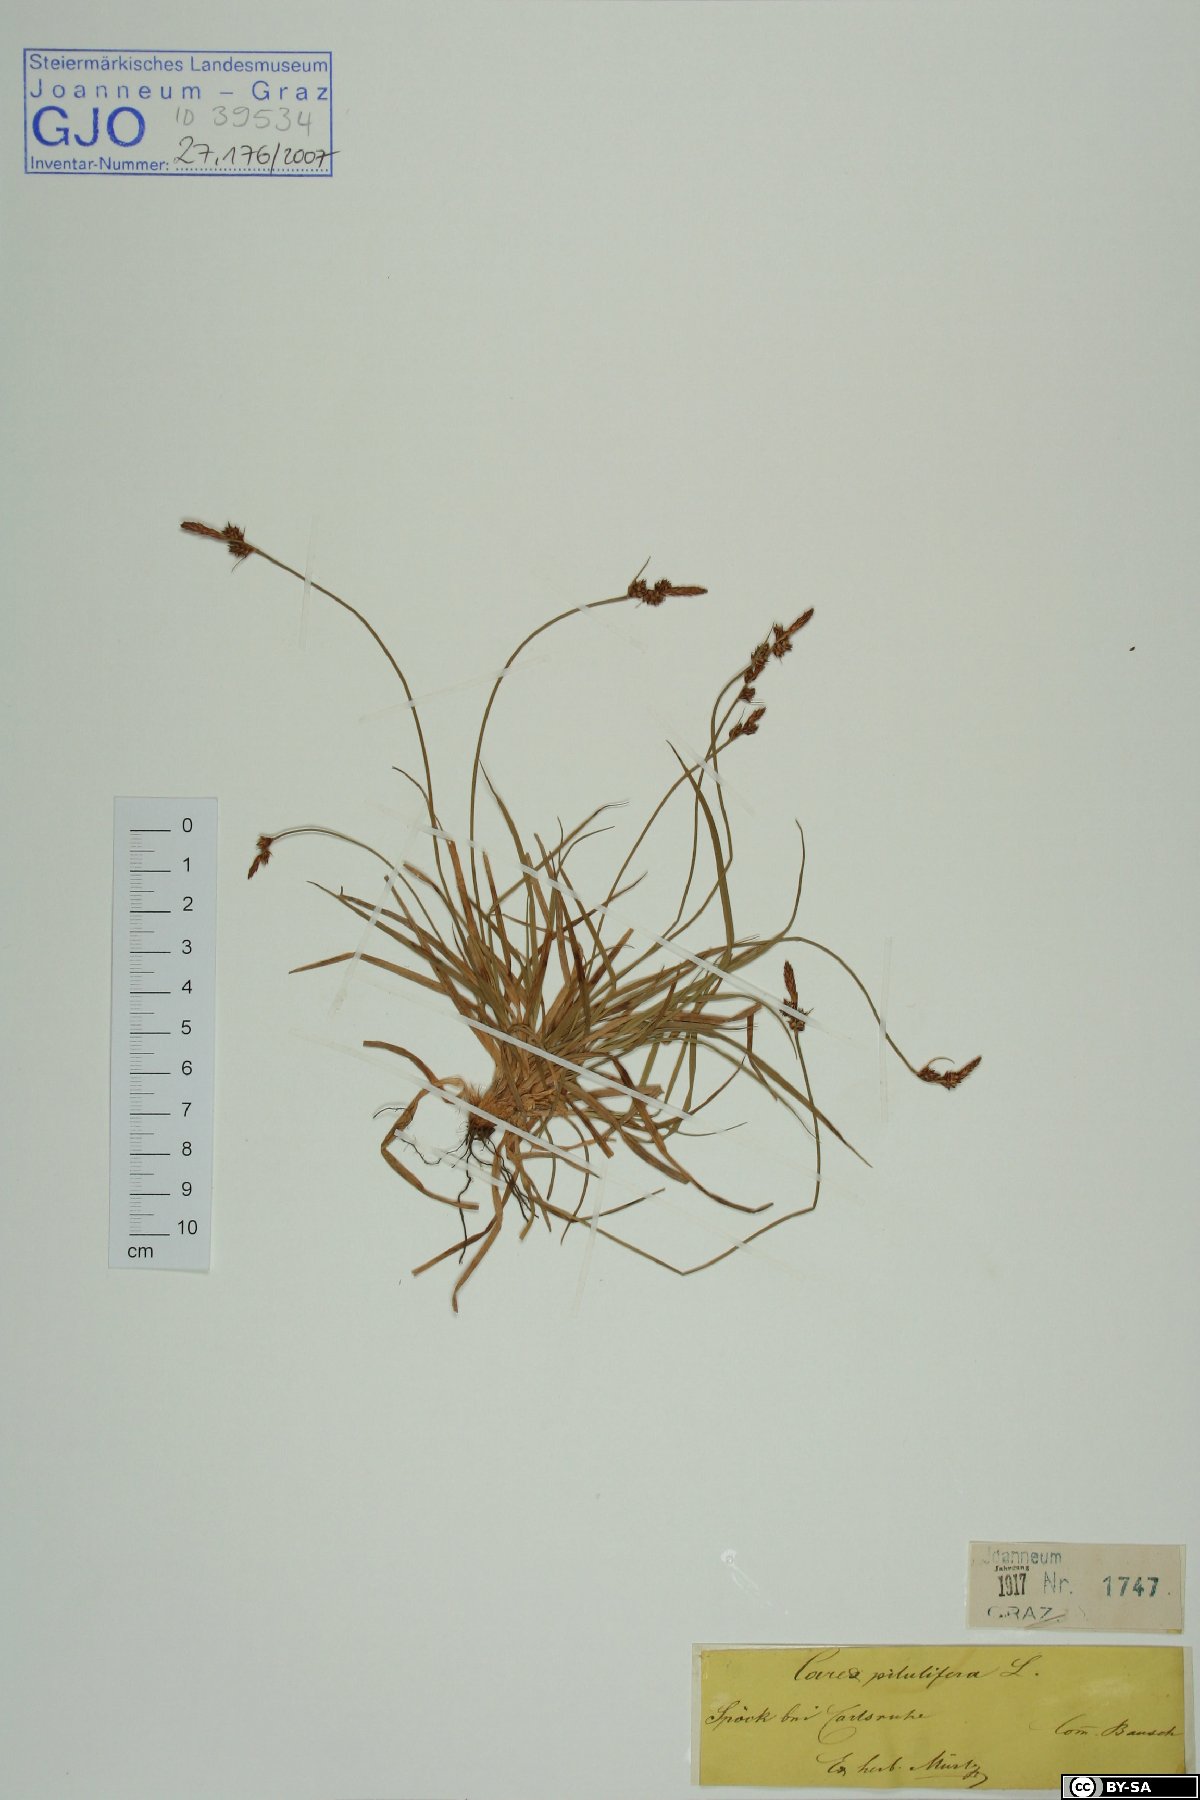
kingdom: Plantae
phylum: Tracheophyta
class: Liliopsida
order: Poales
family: Cyperaceae
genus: Carex
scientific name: Carex pilulifera
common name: Pill sedge
